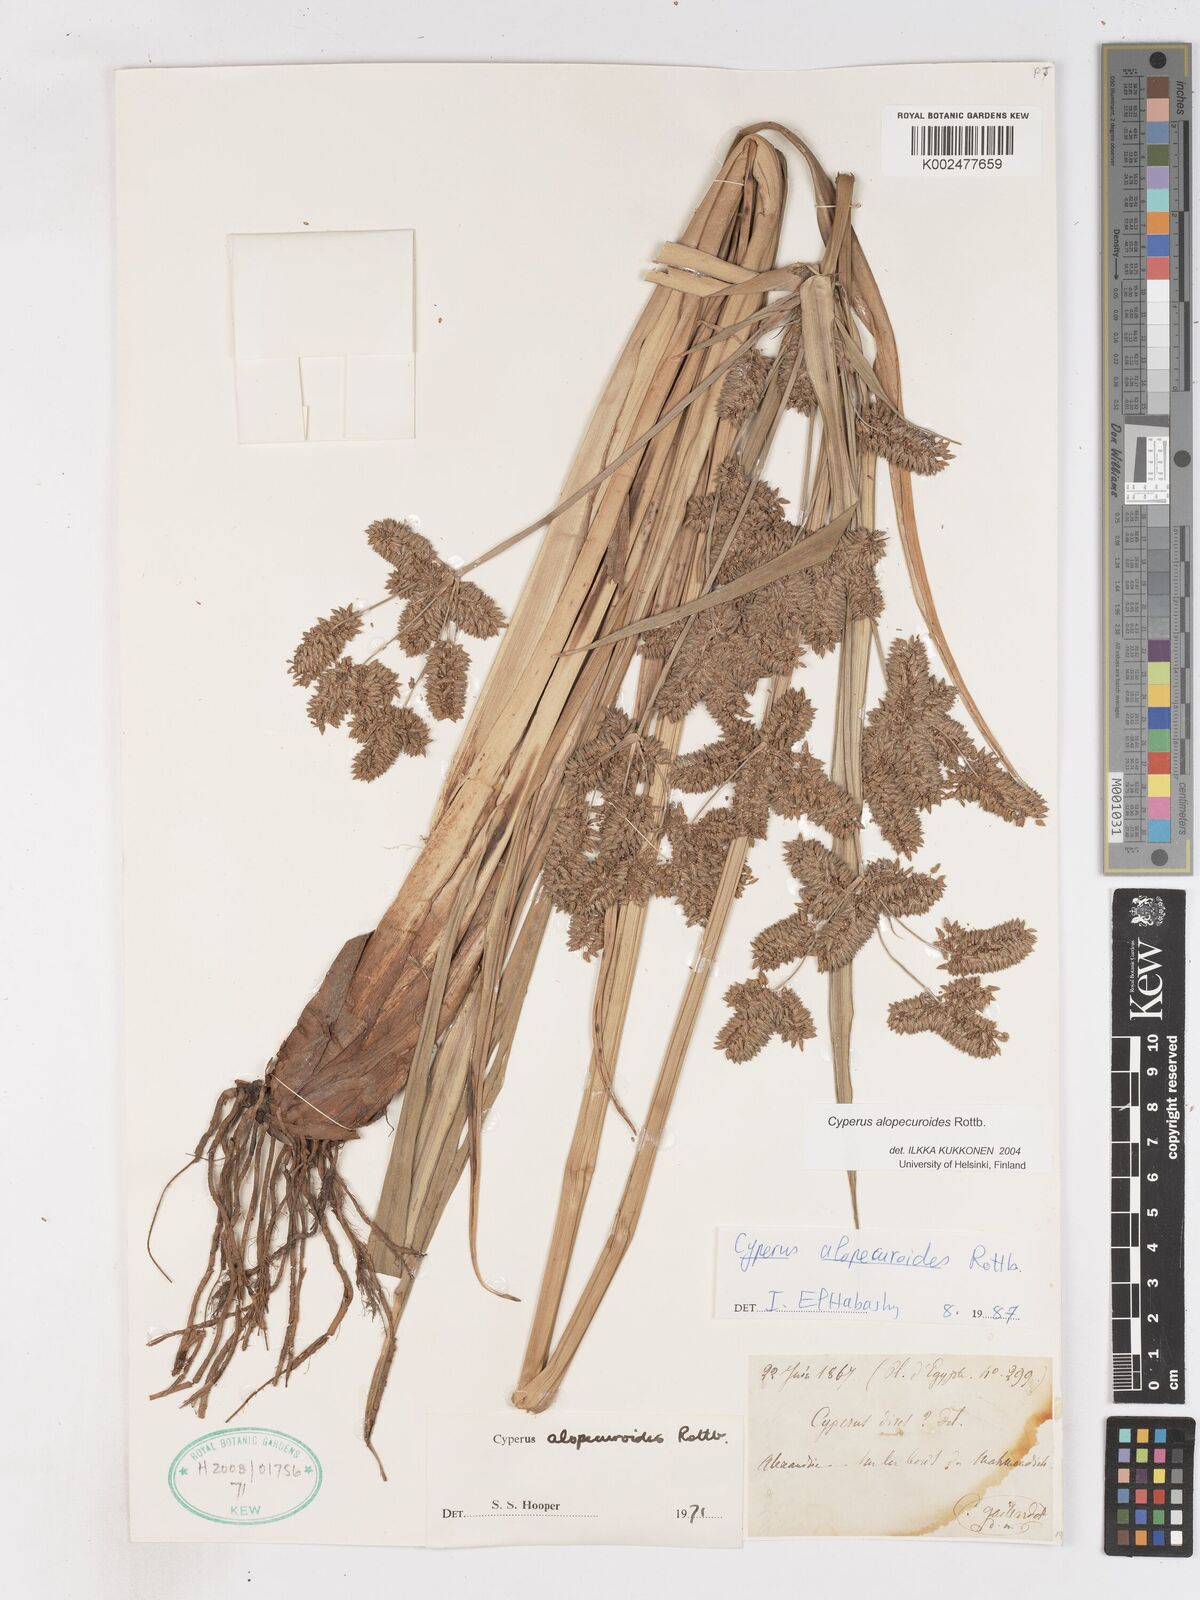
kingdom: Plantae
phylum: Tracheophyta
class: Liliopsida
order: Poales
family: Cyperaceae
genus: Cyperus
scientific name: Cyperus alopecuroides
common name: Foxtail flatsedge
